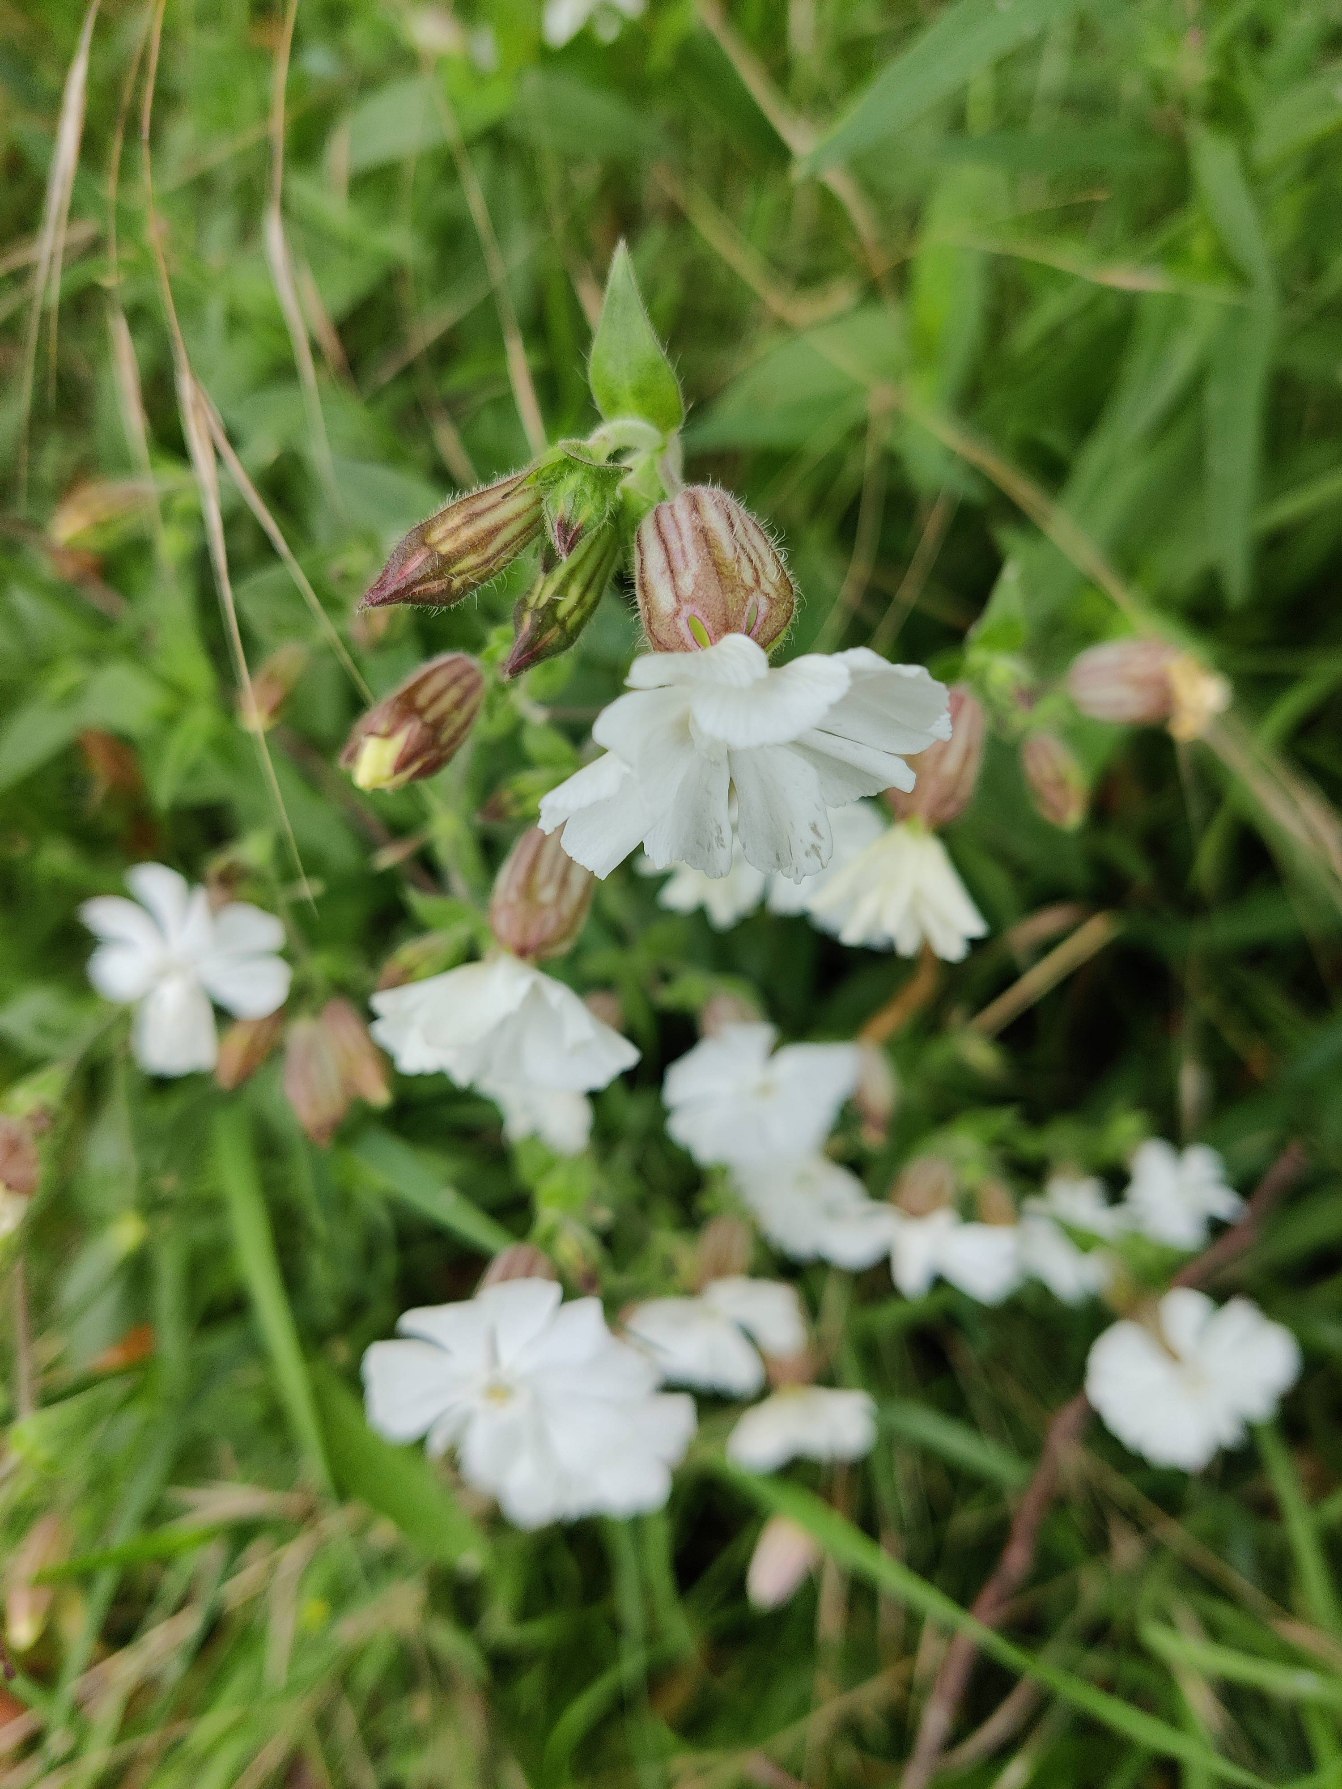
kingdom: Plantae
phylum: Tracheophyta
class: Magnoliopsida
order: Caryophyllales
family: Caryophyllaceae
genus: Silene
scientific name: Silene latifolia
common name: Aftenpragtstjerne
